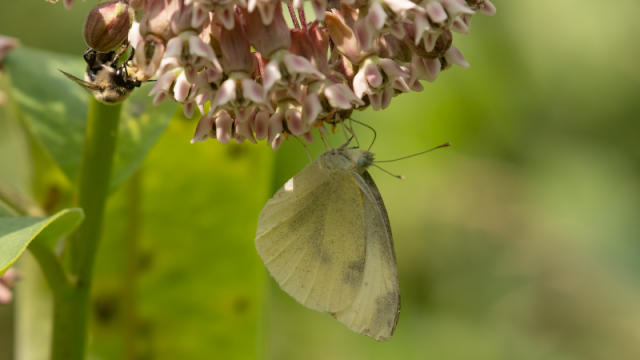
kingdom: Animalia
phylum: Arthropoda
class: Insecta
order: Lepidoptera
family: Pieridae
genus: Pieris
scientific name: Pieris rapae
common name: Cabbage White
